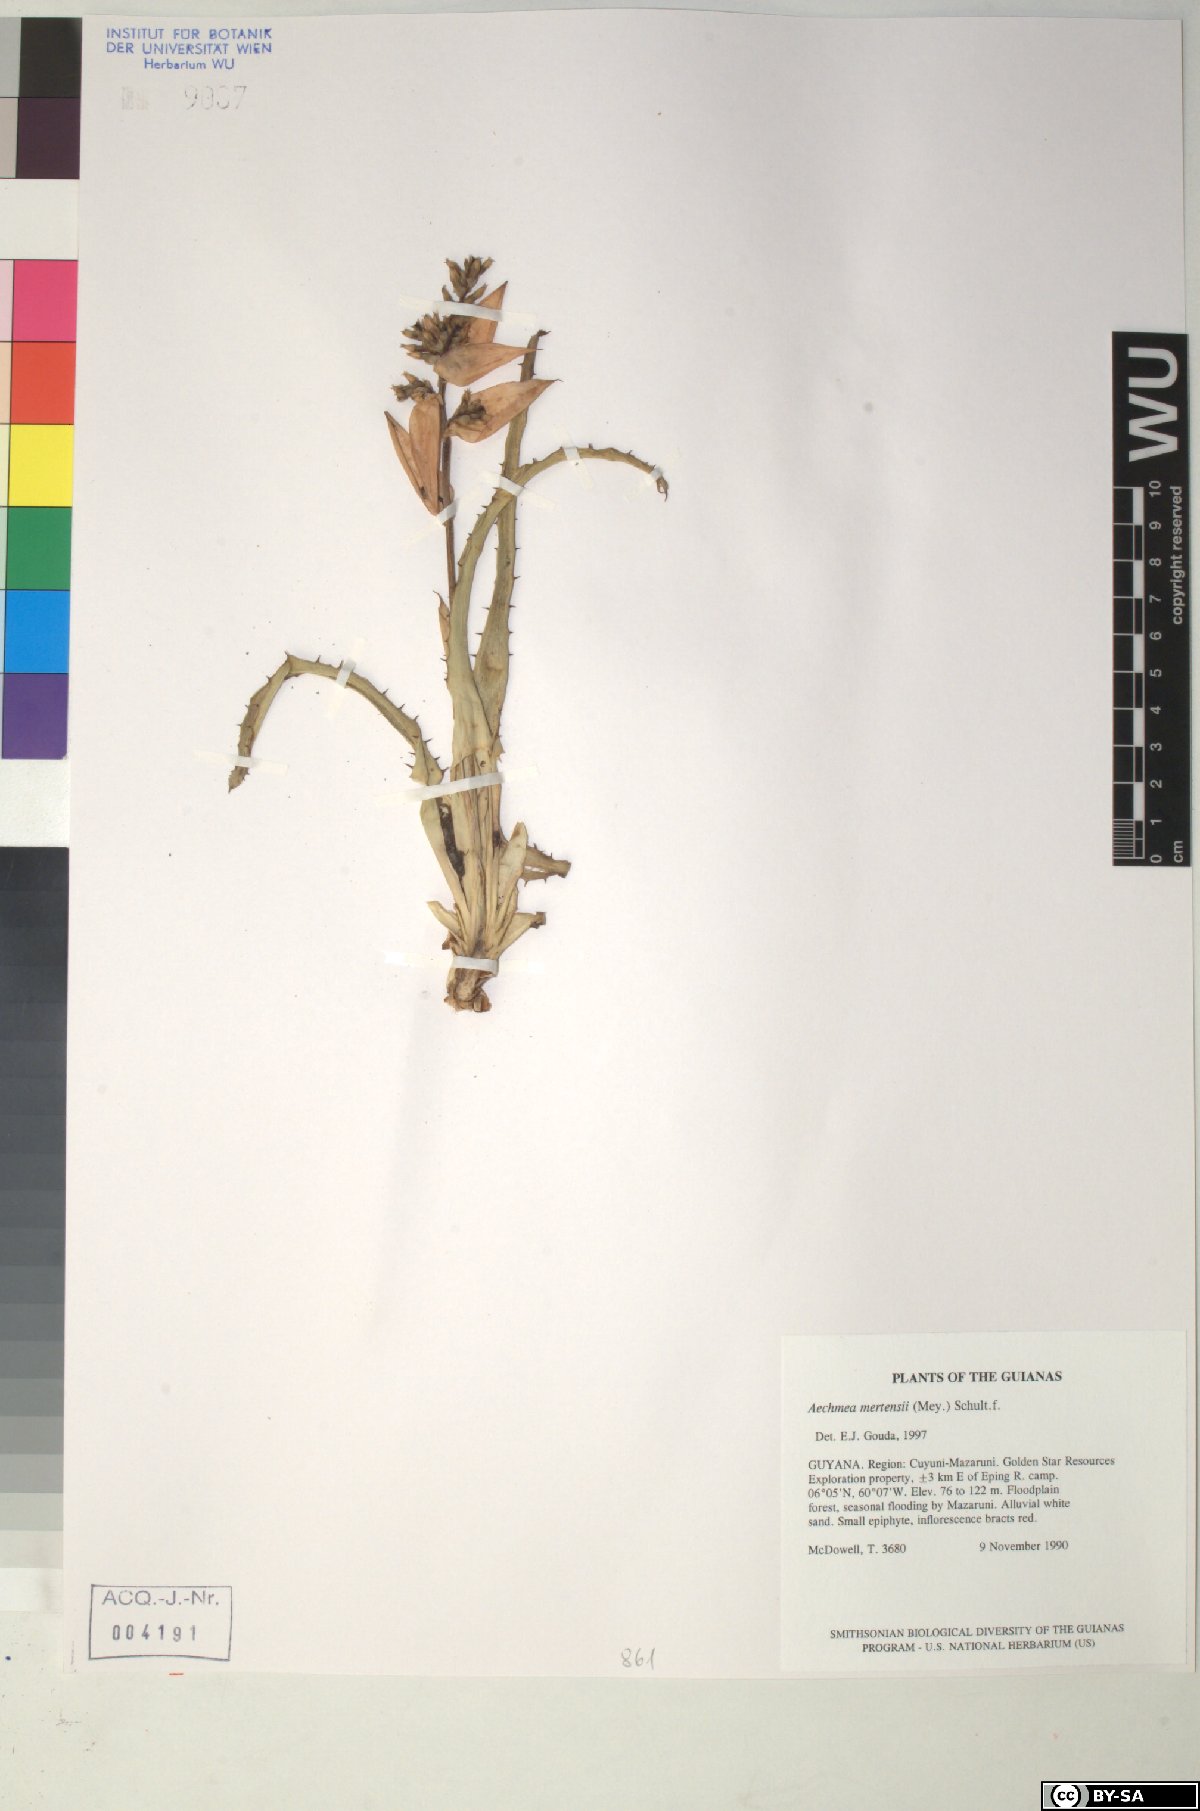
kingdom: Plantae
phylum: Tracheophyta
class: Liliopsida
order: Poales
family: Bromeliaceae
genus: Aechmea
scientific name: Aechmea mertensii
